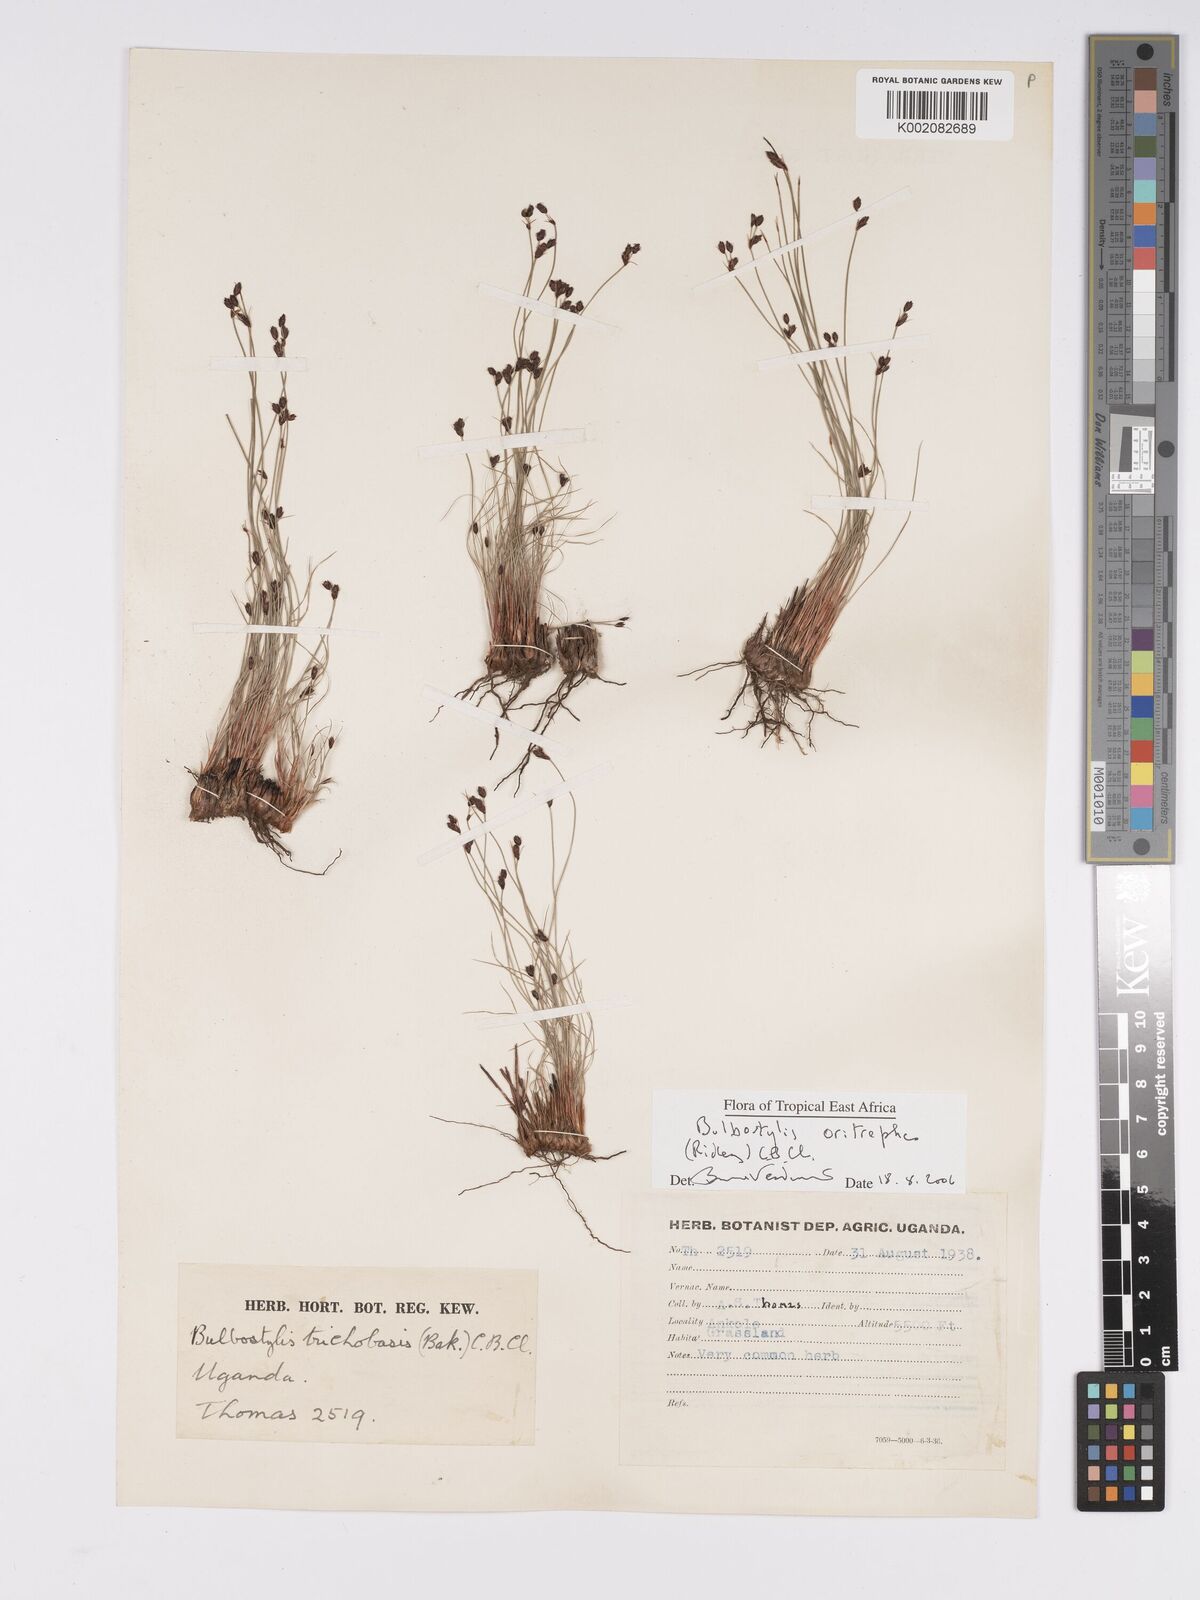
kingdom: Plantae
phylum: Tracheophyta
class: Liliopsida
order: Poales
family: Cyperaceae
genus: Bulbostylis
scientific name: Bulbostylis oritrephes
